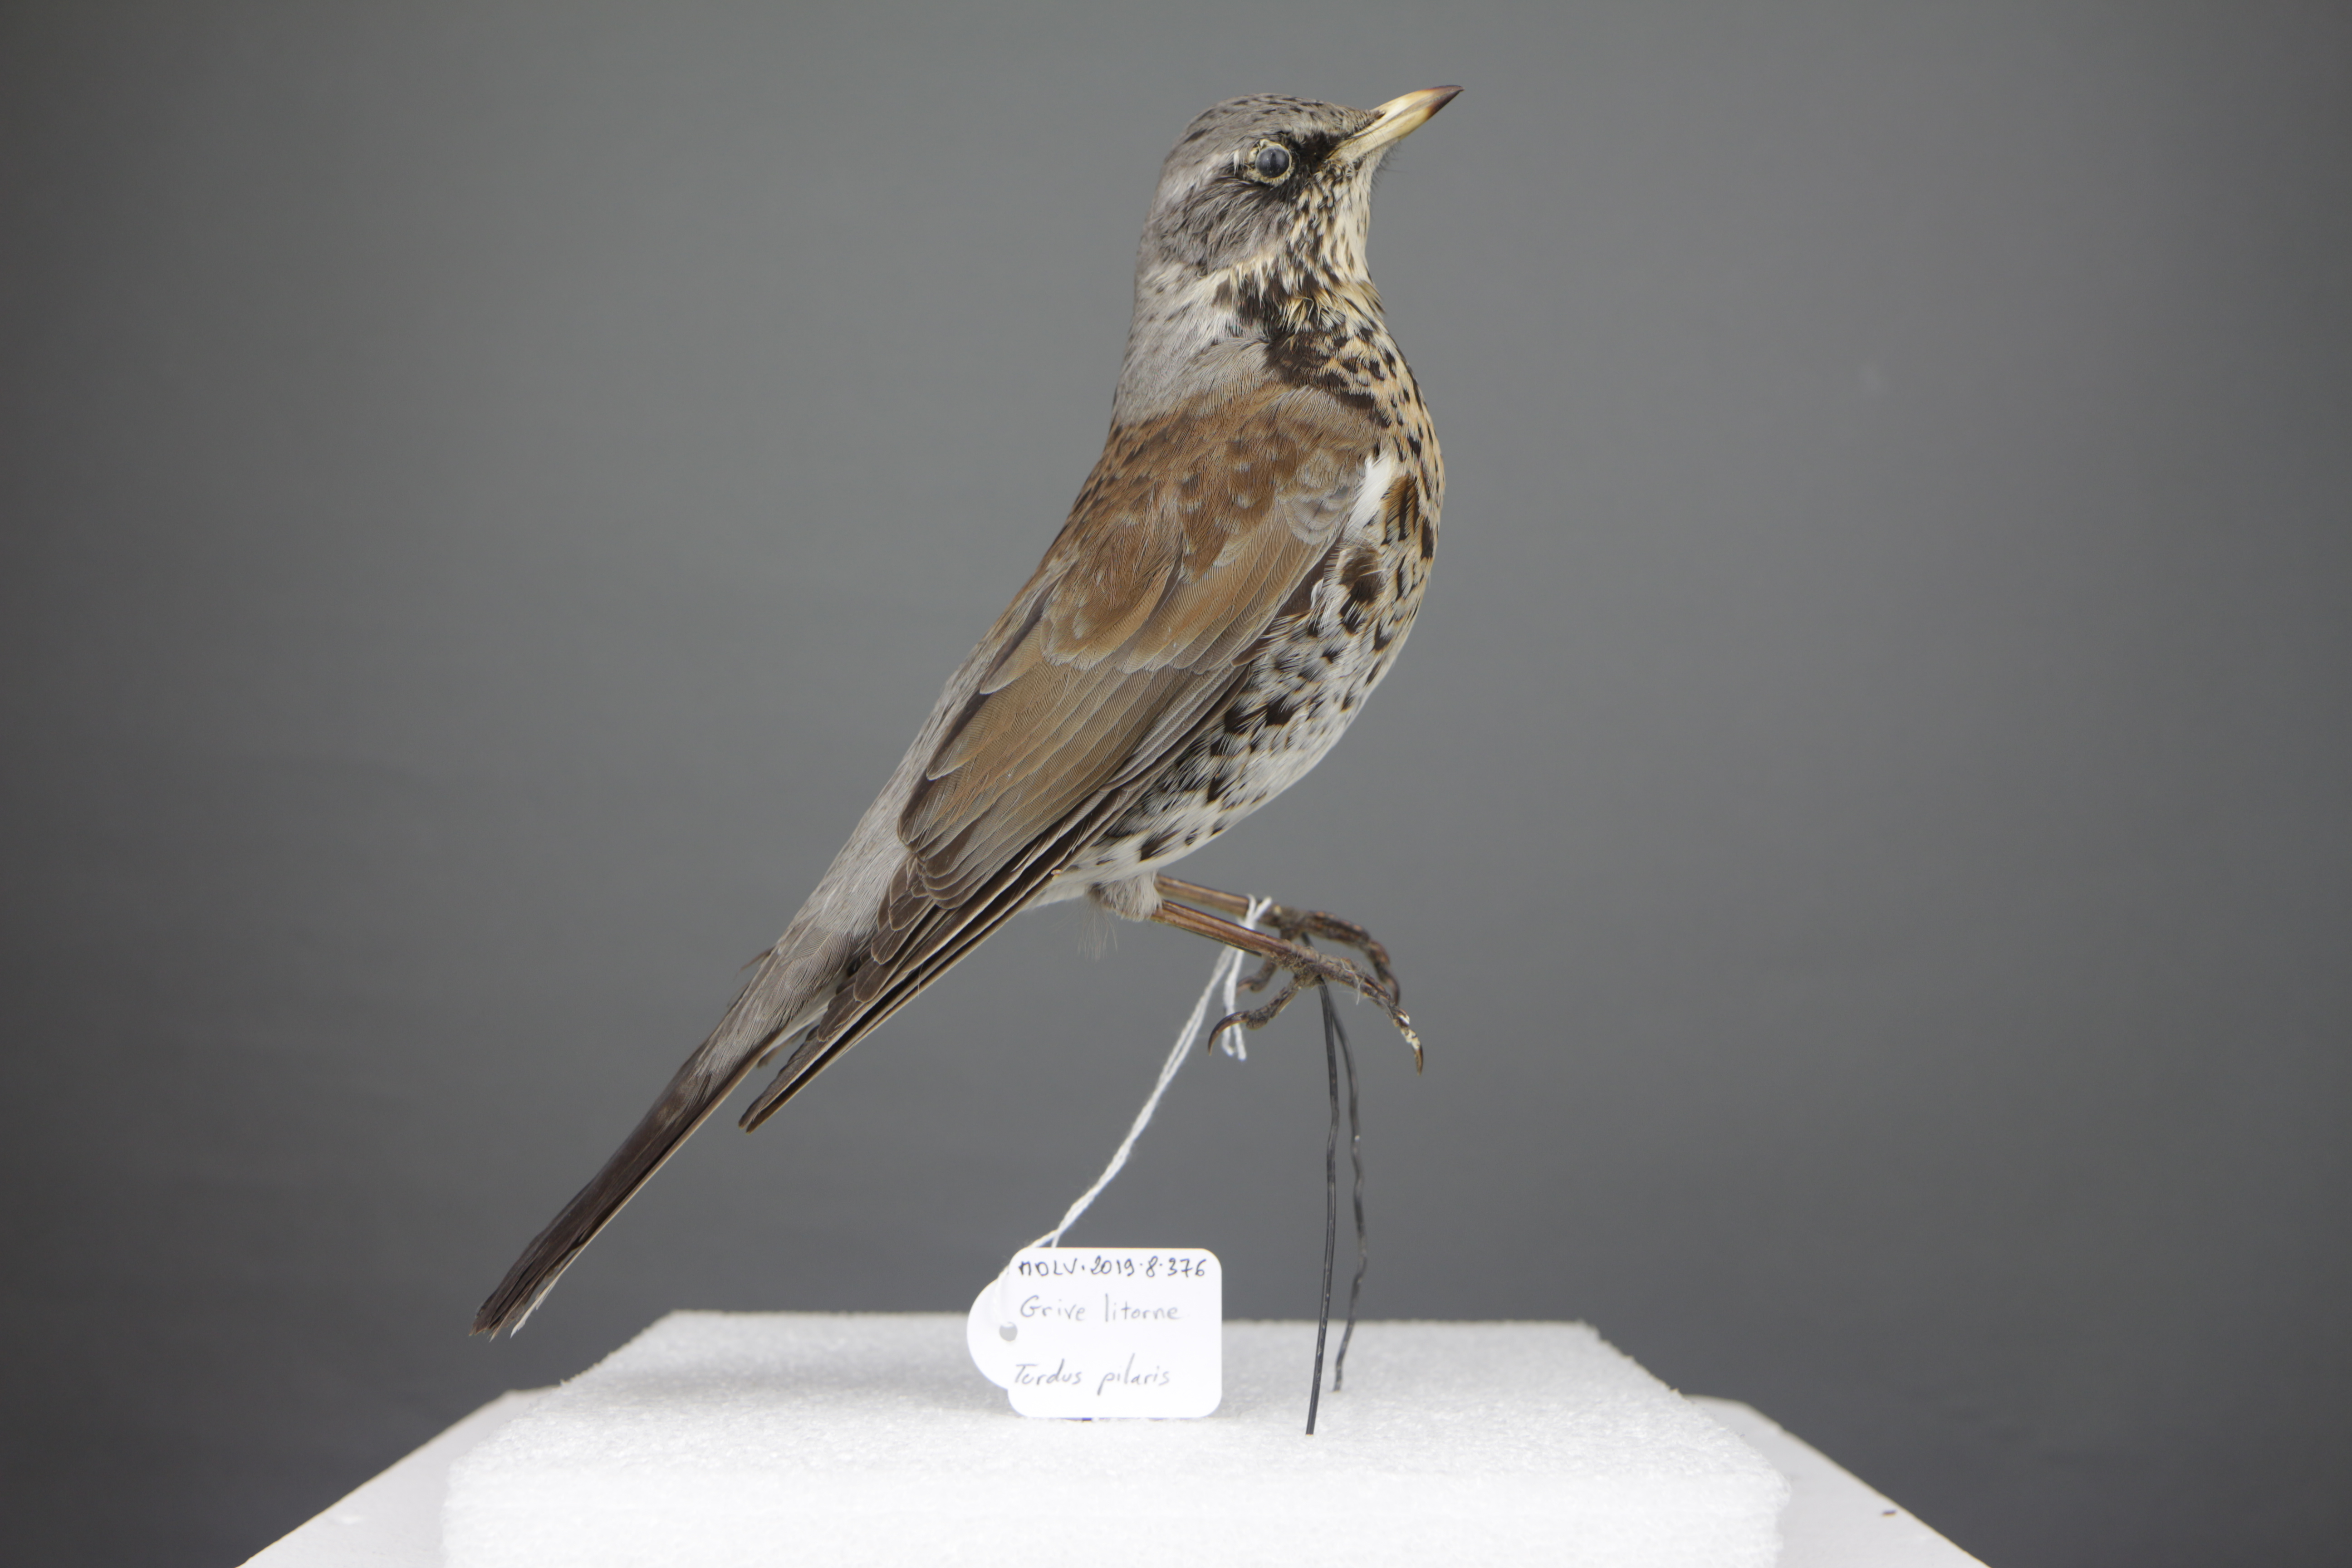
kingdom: Animalia
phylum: Chordata
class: Aves
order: Passeriformes
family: Turdidae
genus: Turdus
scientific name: Turdus pilaris
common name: Fieldfare
